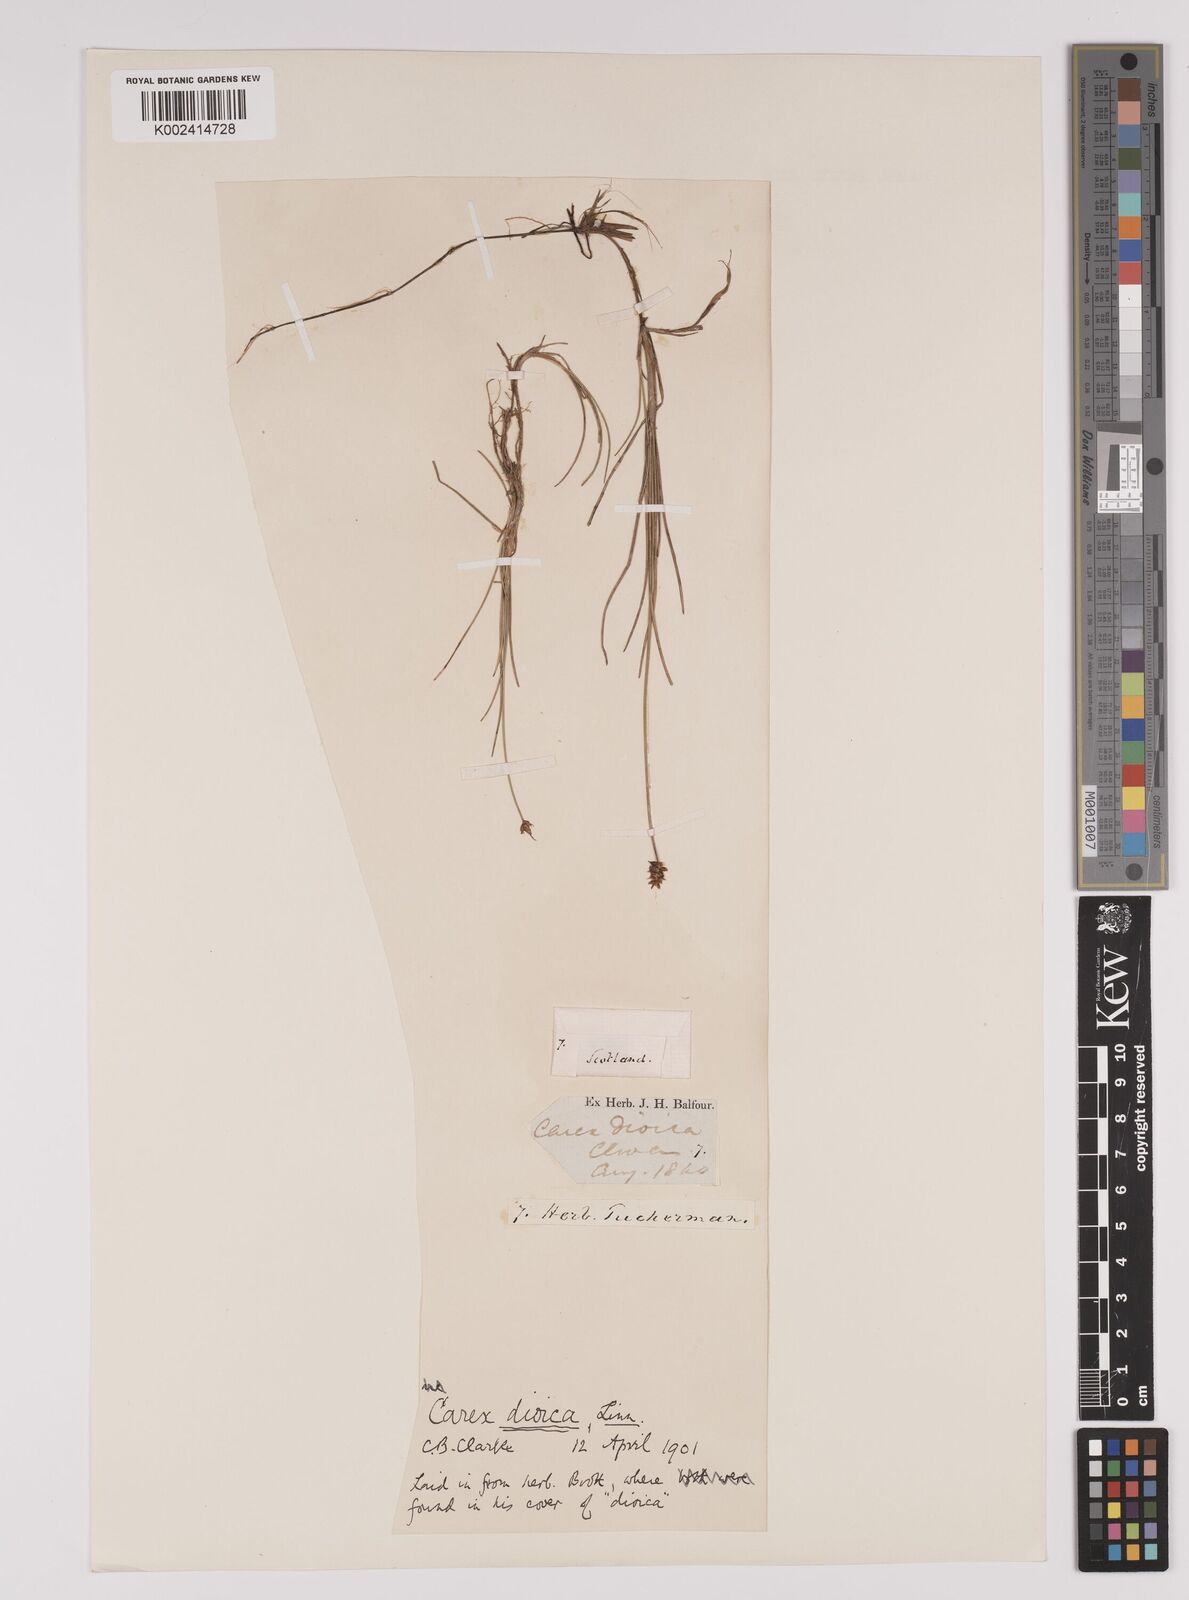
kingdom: Plantae
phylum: Tracheophyta
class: Liliopsida
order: Poales
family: Cyperaceae
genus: Carex
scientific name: Carex dioica
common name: Dioecious sedge
